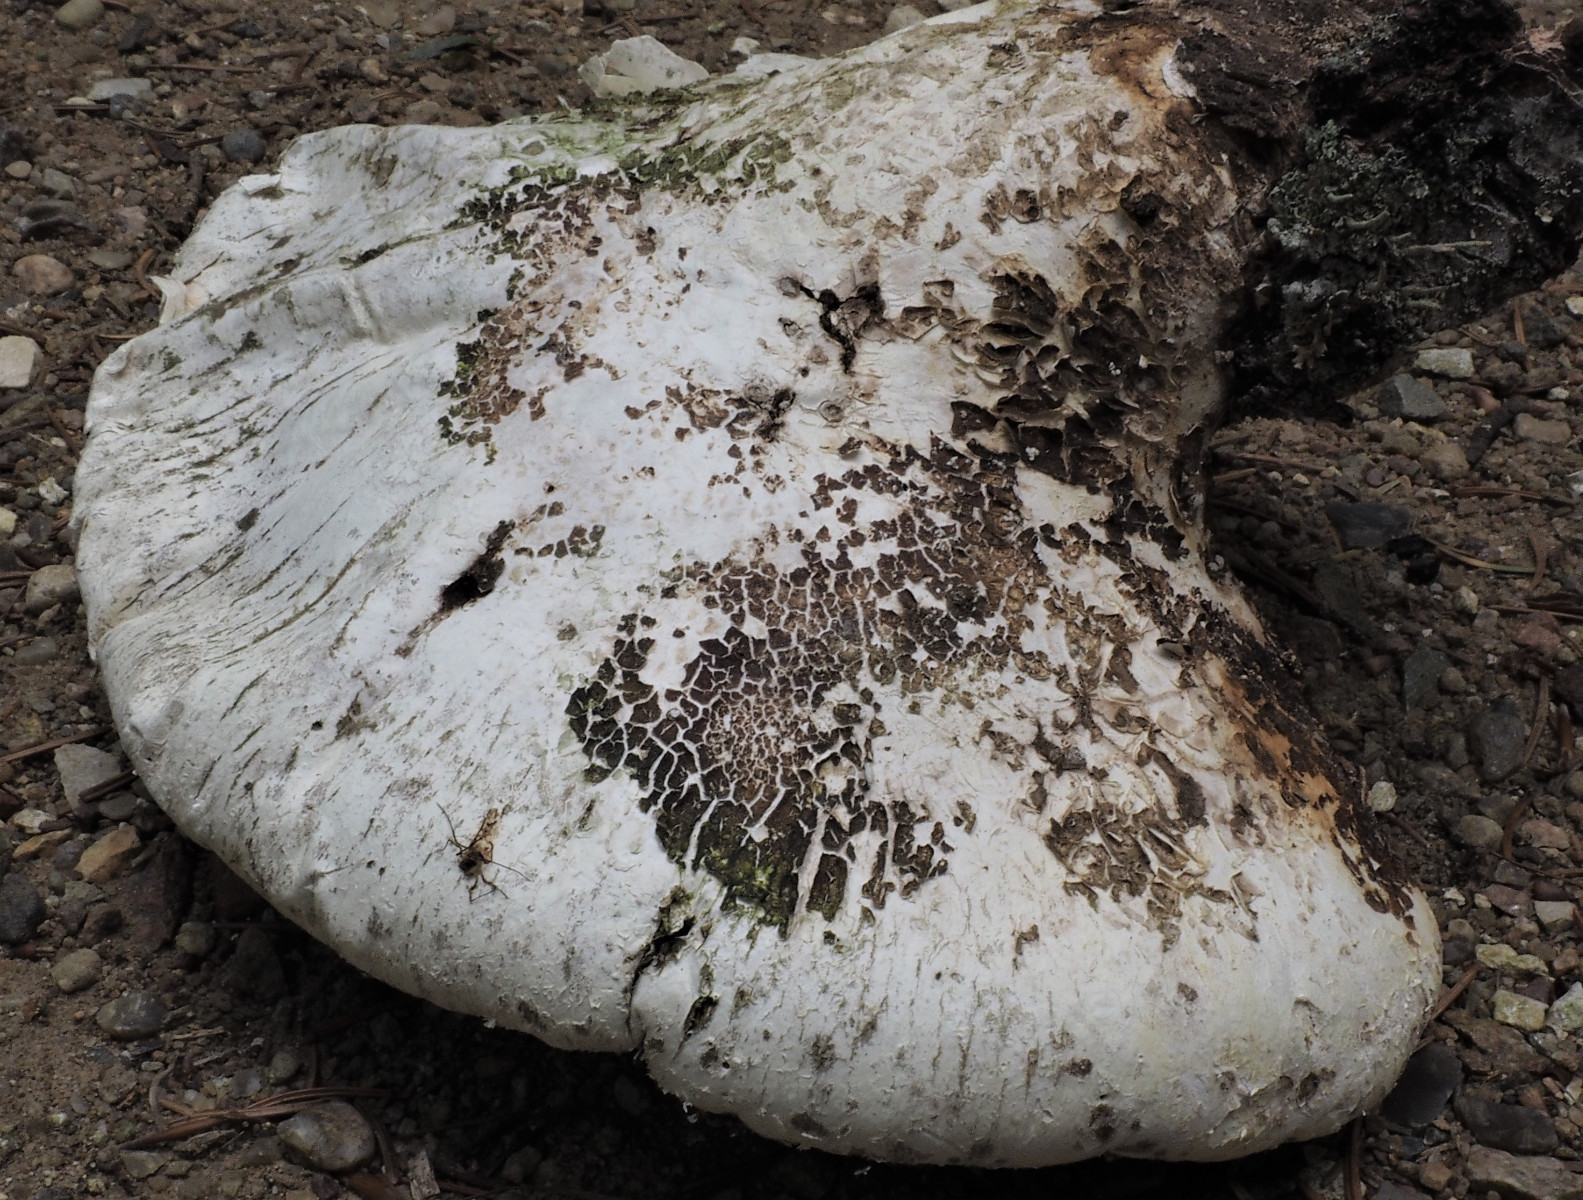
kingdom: Fungi
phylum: Basidiomycota
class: Agaricomycetes
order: Polyporales
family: Fomitopsidaceae
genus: Fomitopsis
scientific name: Fomitopsis betulina
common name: birkeporesvamp
